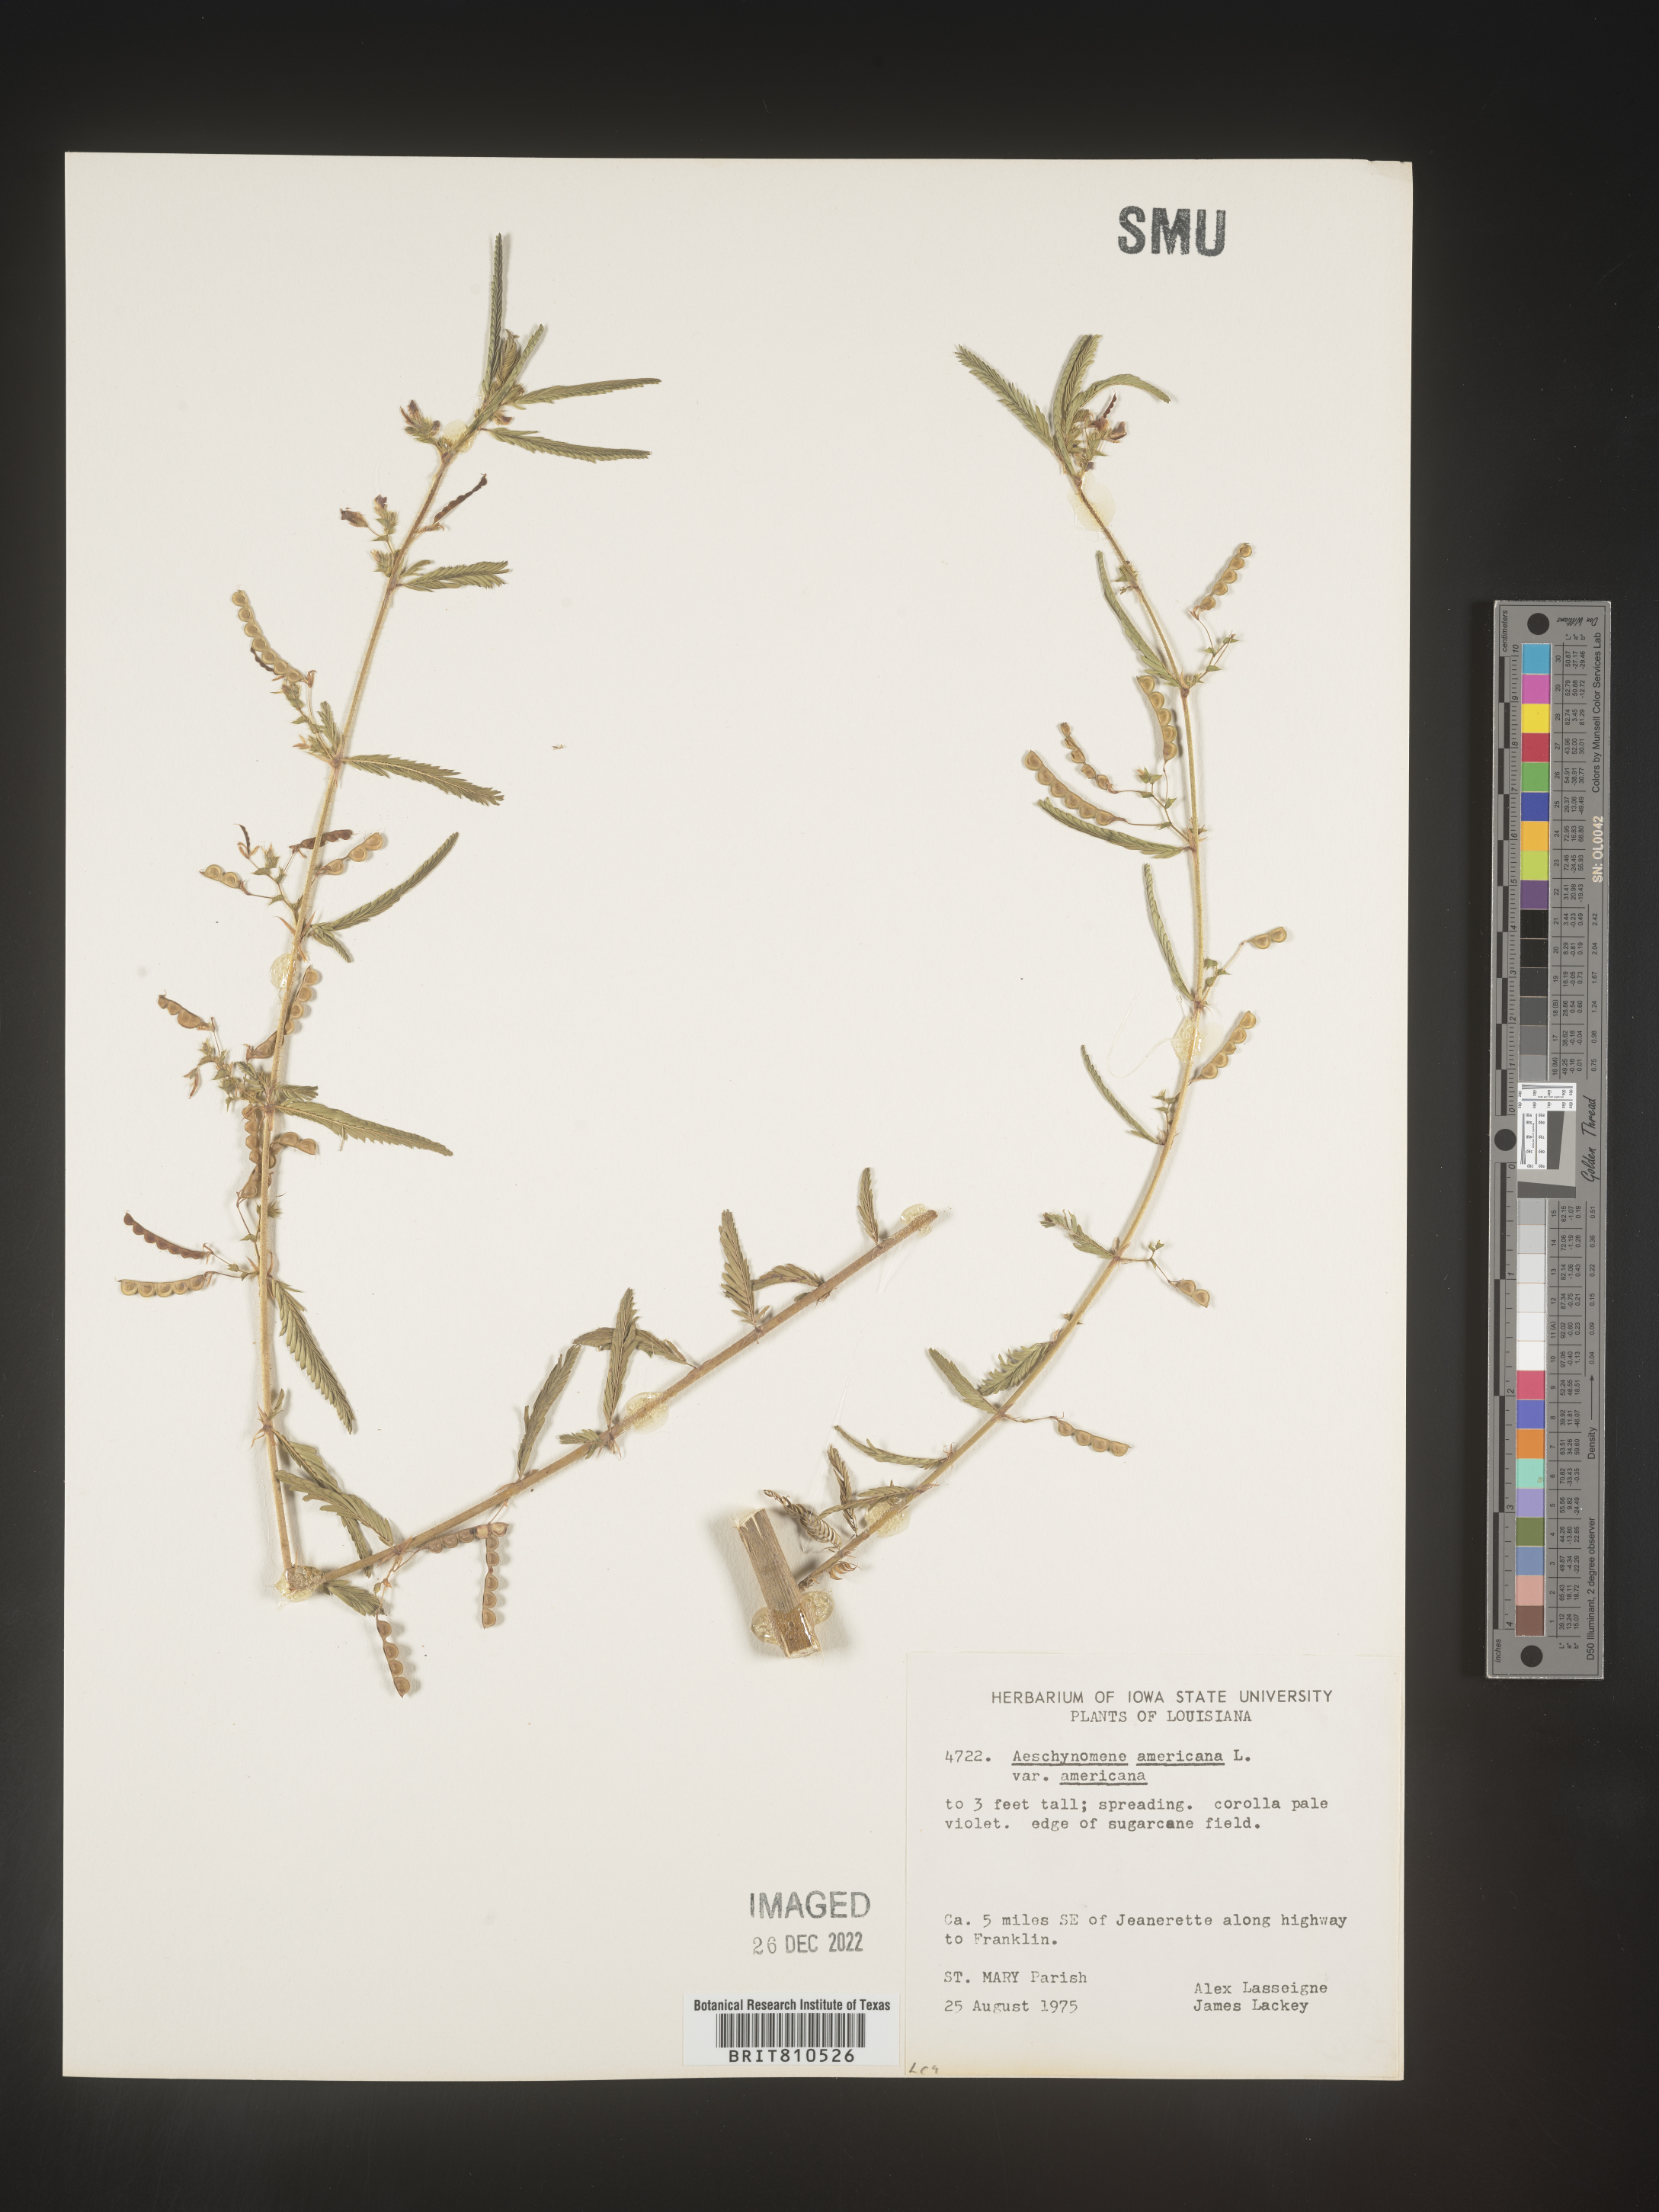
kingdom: Plantae
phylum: Tracheophyta
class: Magnoliopsida
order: Fabales
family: Fabaceae
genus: Aeschynomene
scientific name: Aeschynomene americana
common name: Joint-vetch
